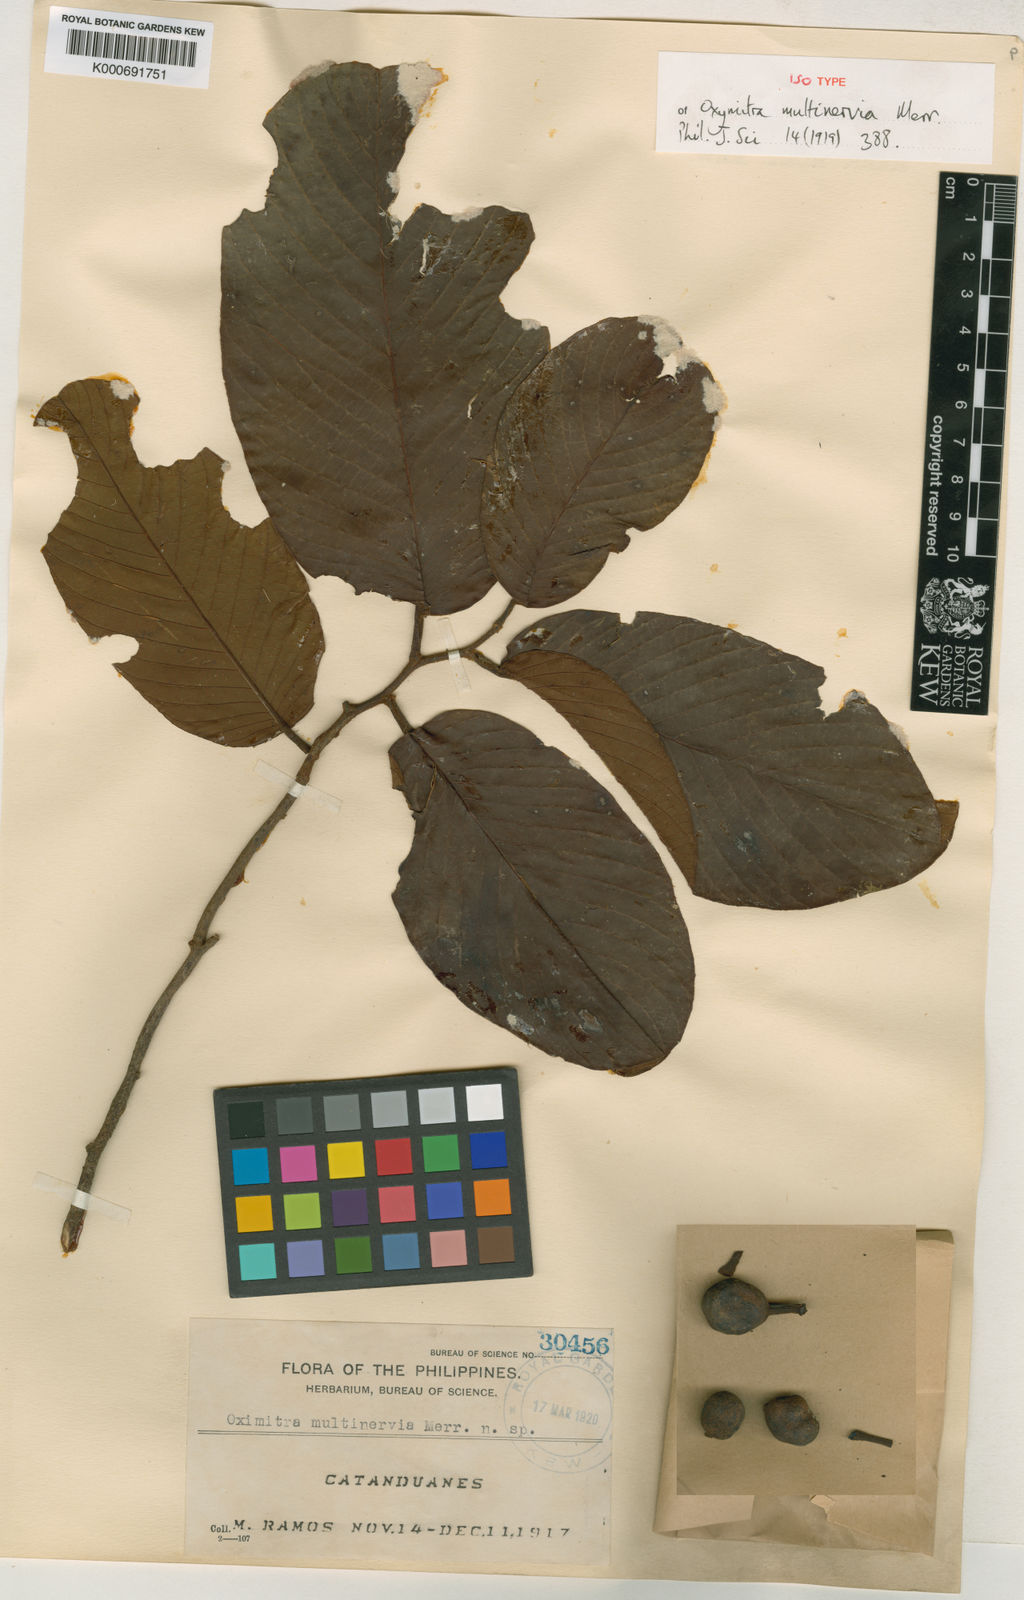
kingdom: Plantae
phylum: Tracheophyta
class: Magnoliopsida
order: Magnoliales
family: Annonaceae
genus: Fissistigma
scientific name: Fissistigma latifolium
